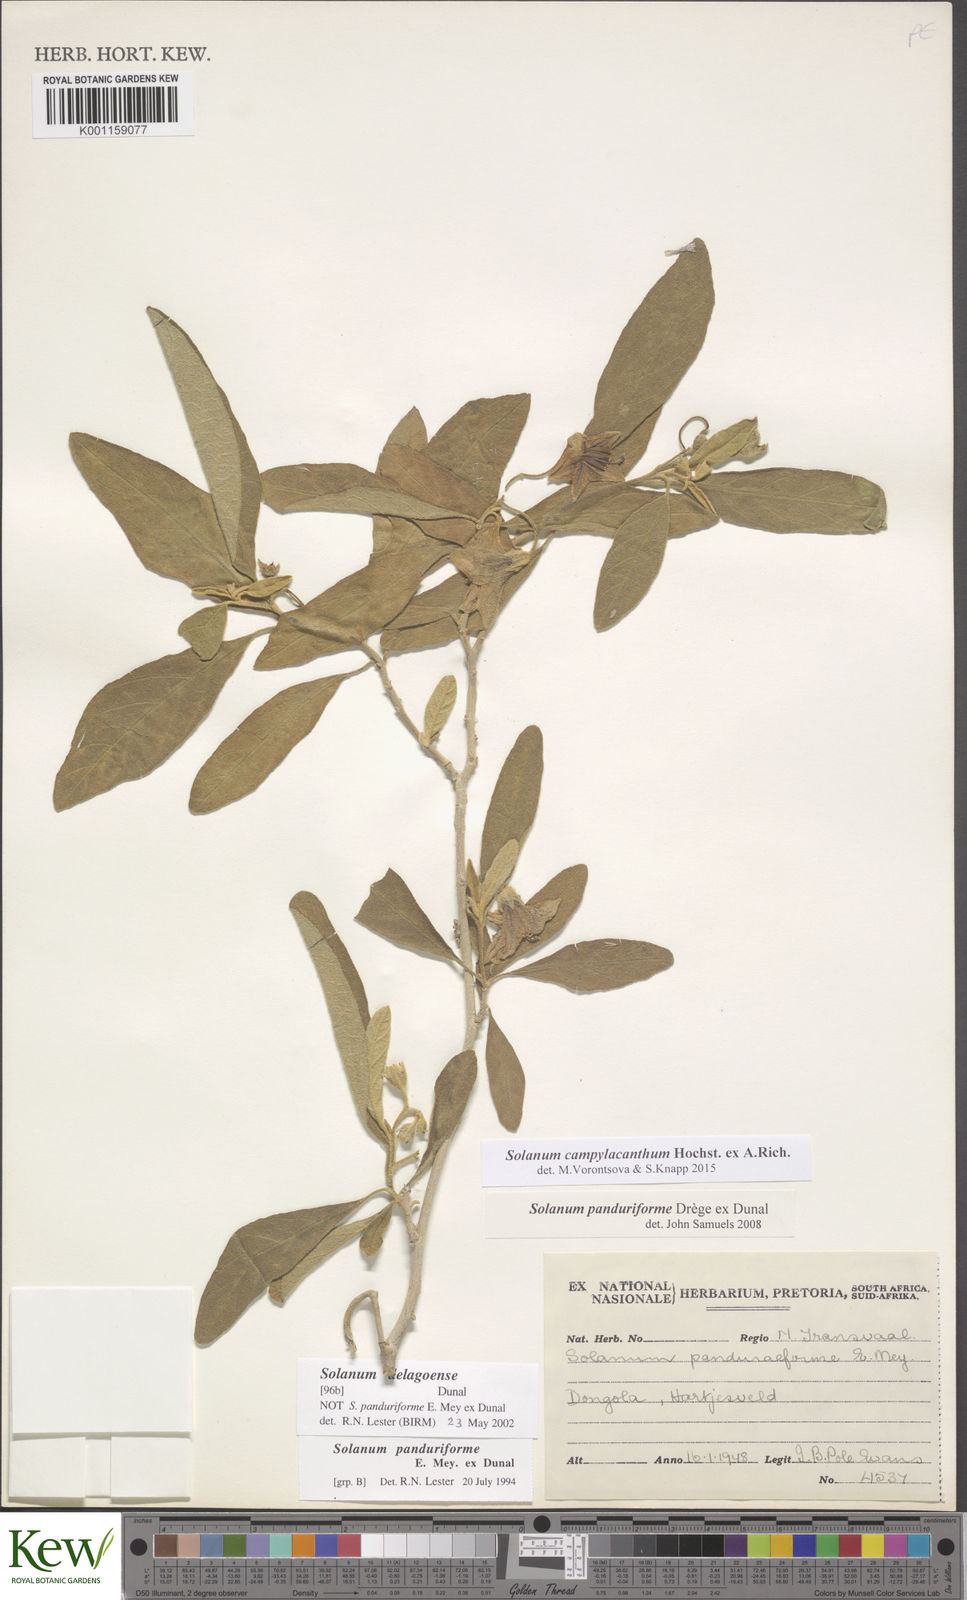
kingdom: Plantae
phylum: Tracheophyta
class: Magnoliopsida
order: Solanales
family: Solanaceae
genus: Solanum
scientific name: Solanum campylacanthum
